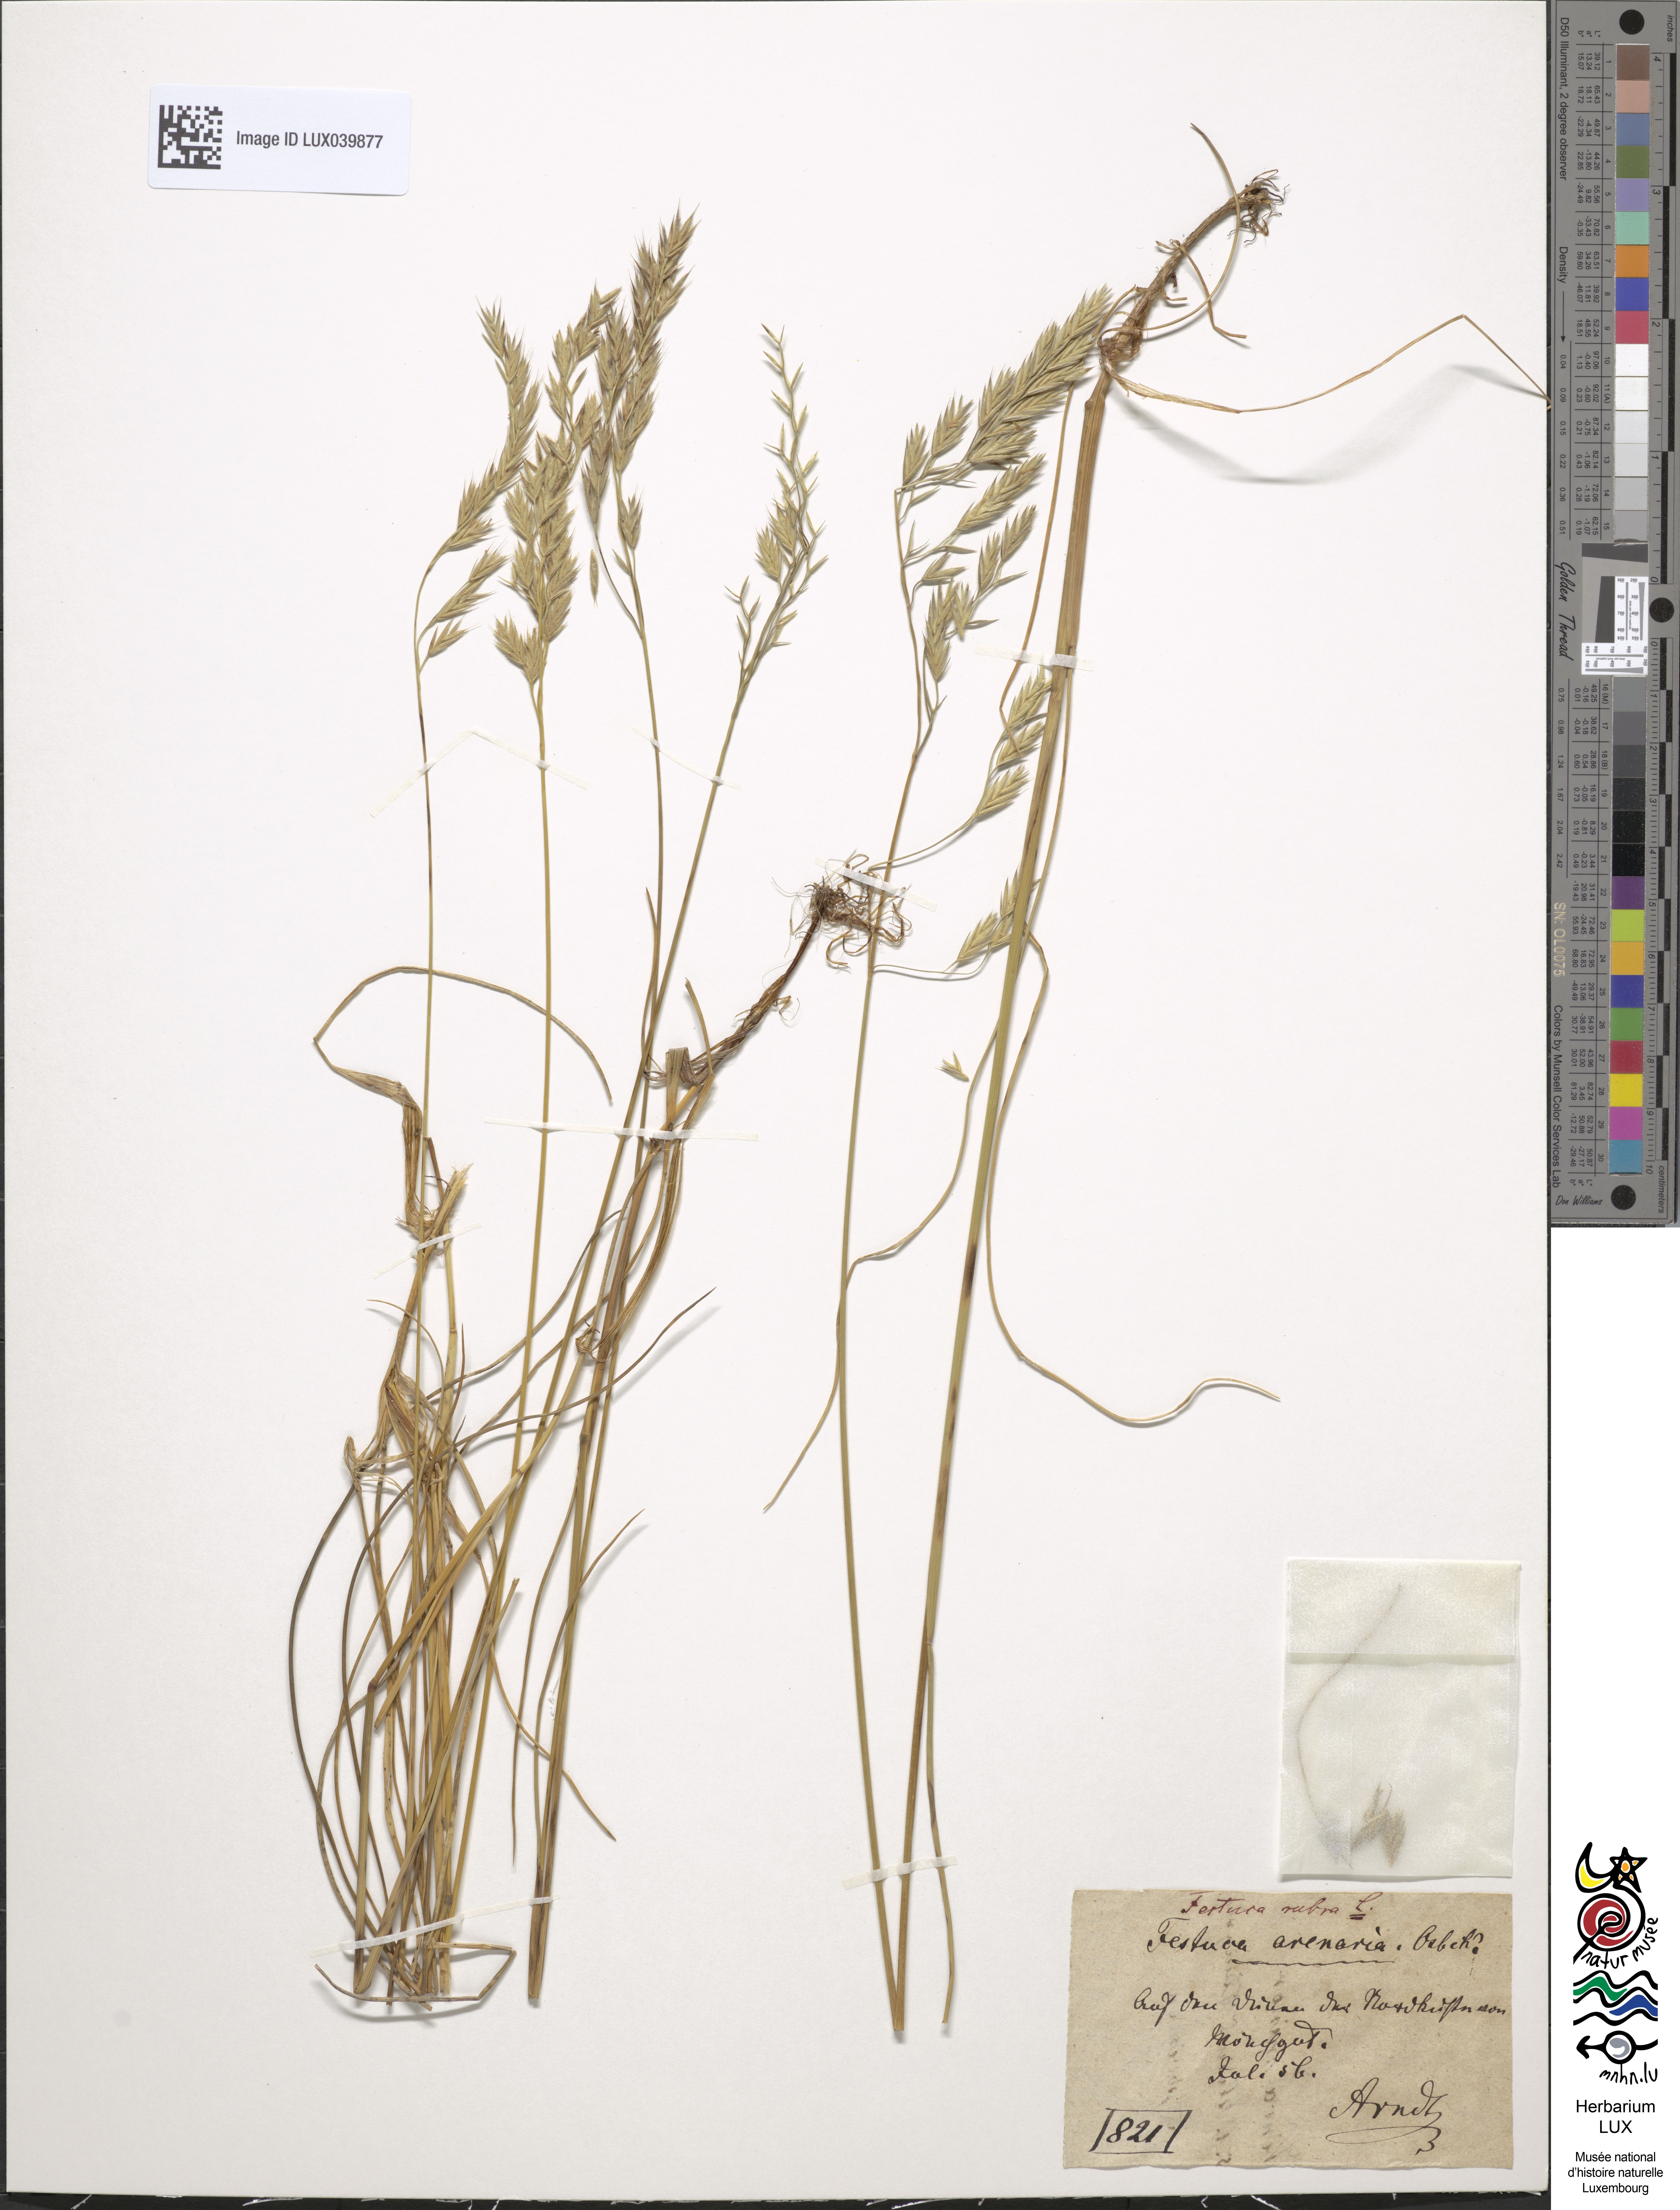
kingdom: Plantae
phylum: Tracheophyta
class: Liliopsida
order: Poales
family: Poaceae
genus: Festuca
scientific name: Festuca rubra
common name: Red fescue
